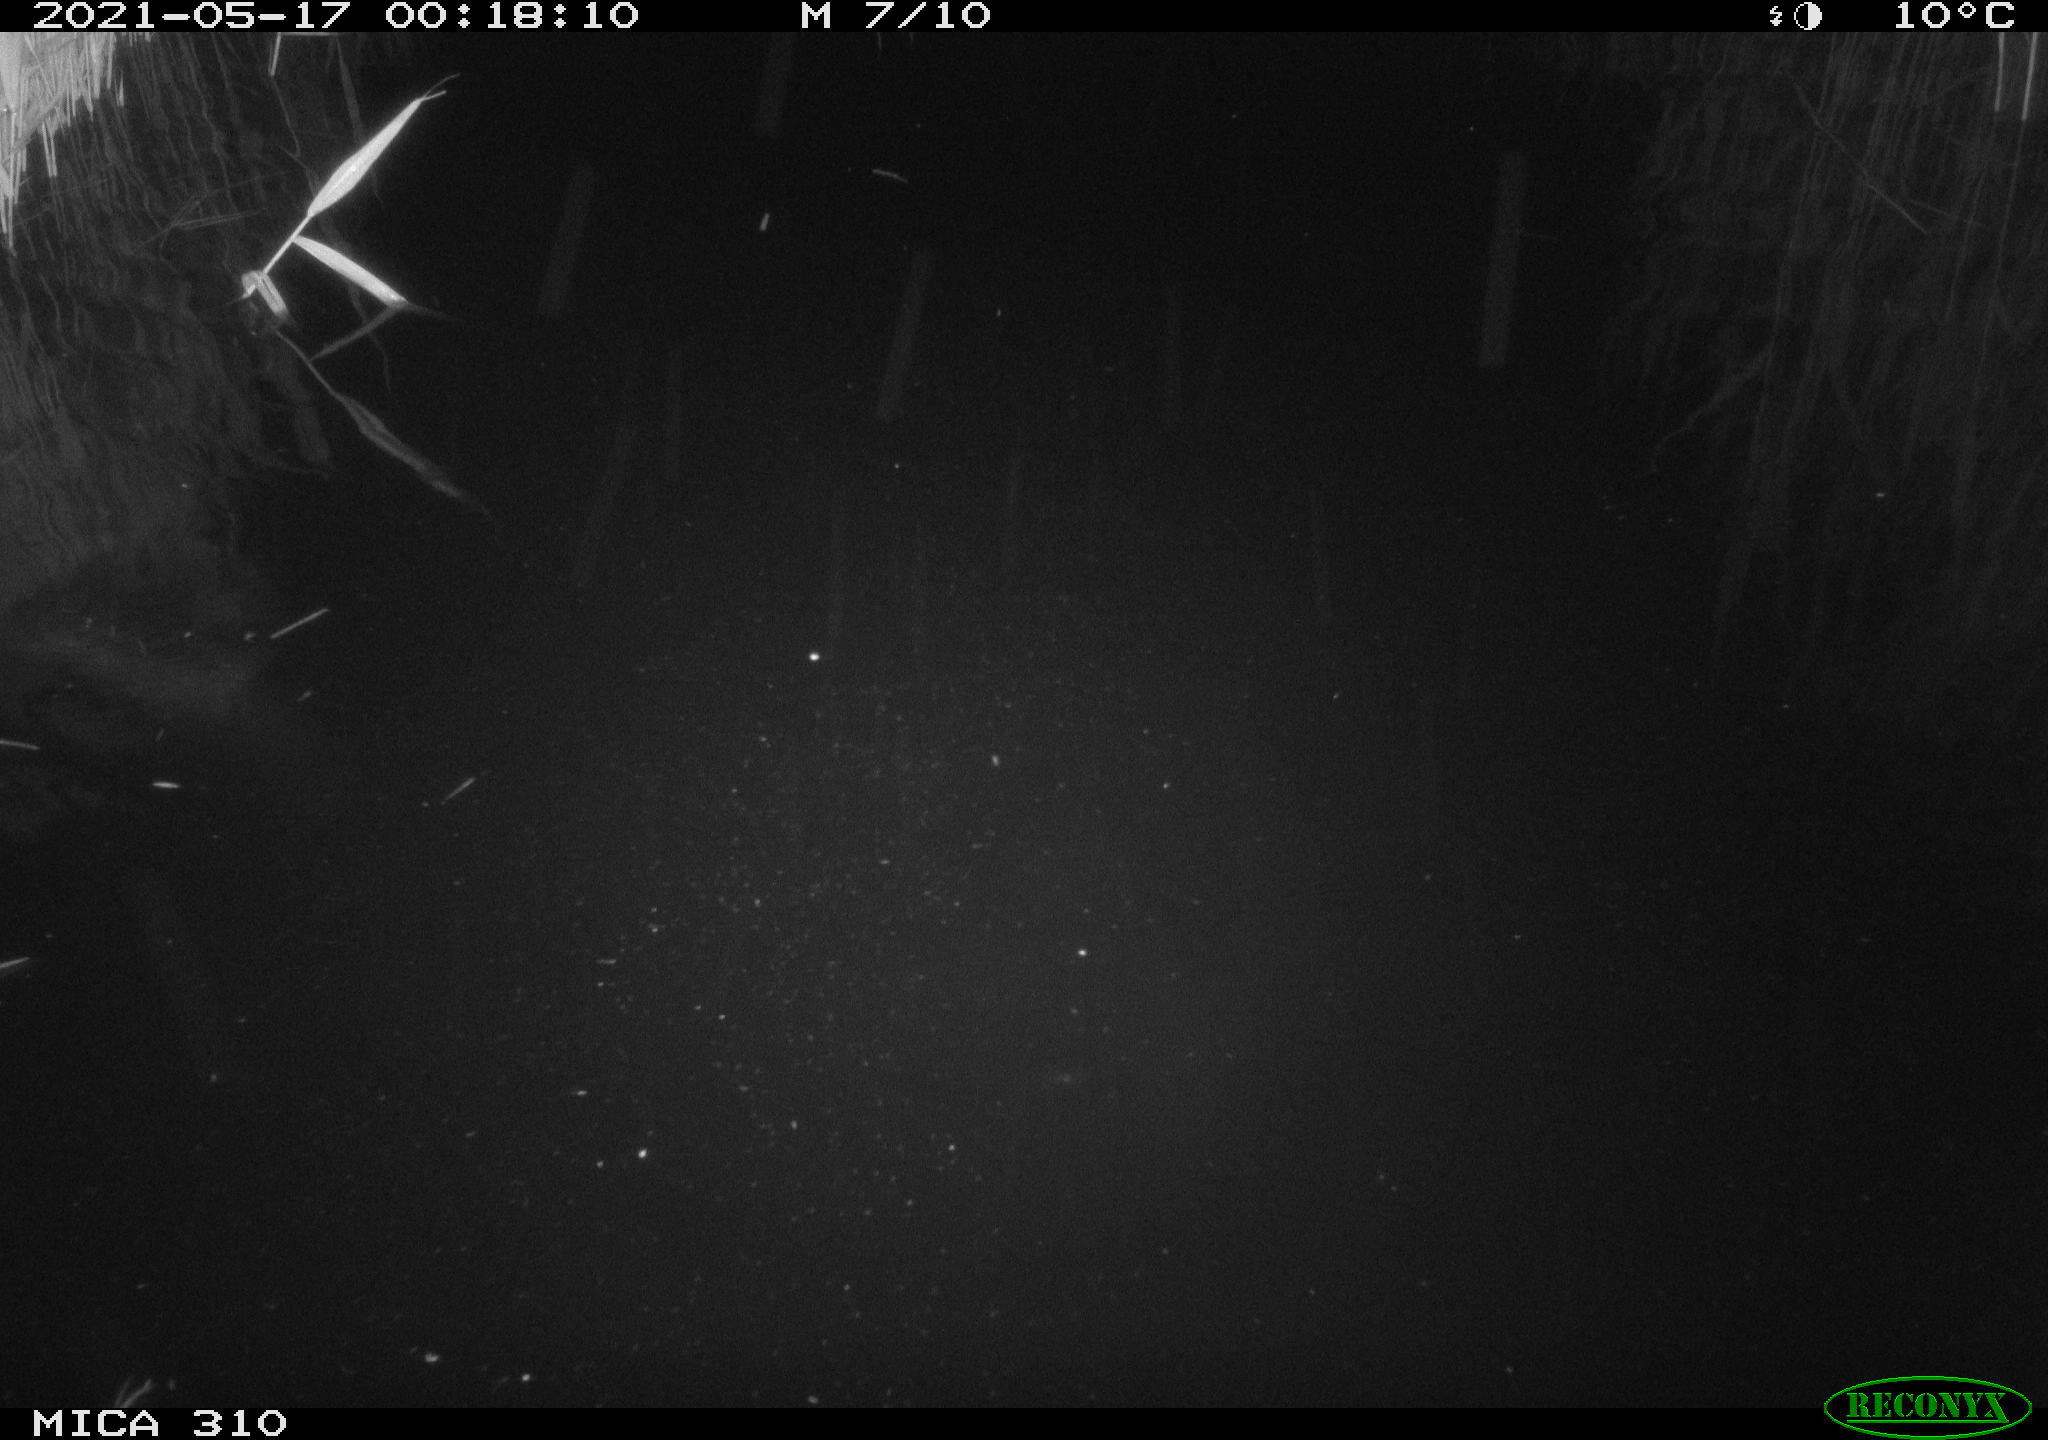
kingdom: Animalia
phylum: Chordata
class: Aves
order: Anseriformes
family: Anatidae
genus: Anas
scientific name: Anas platyrhynchos
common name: Mallard
